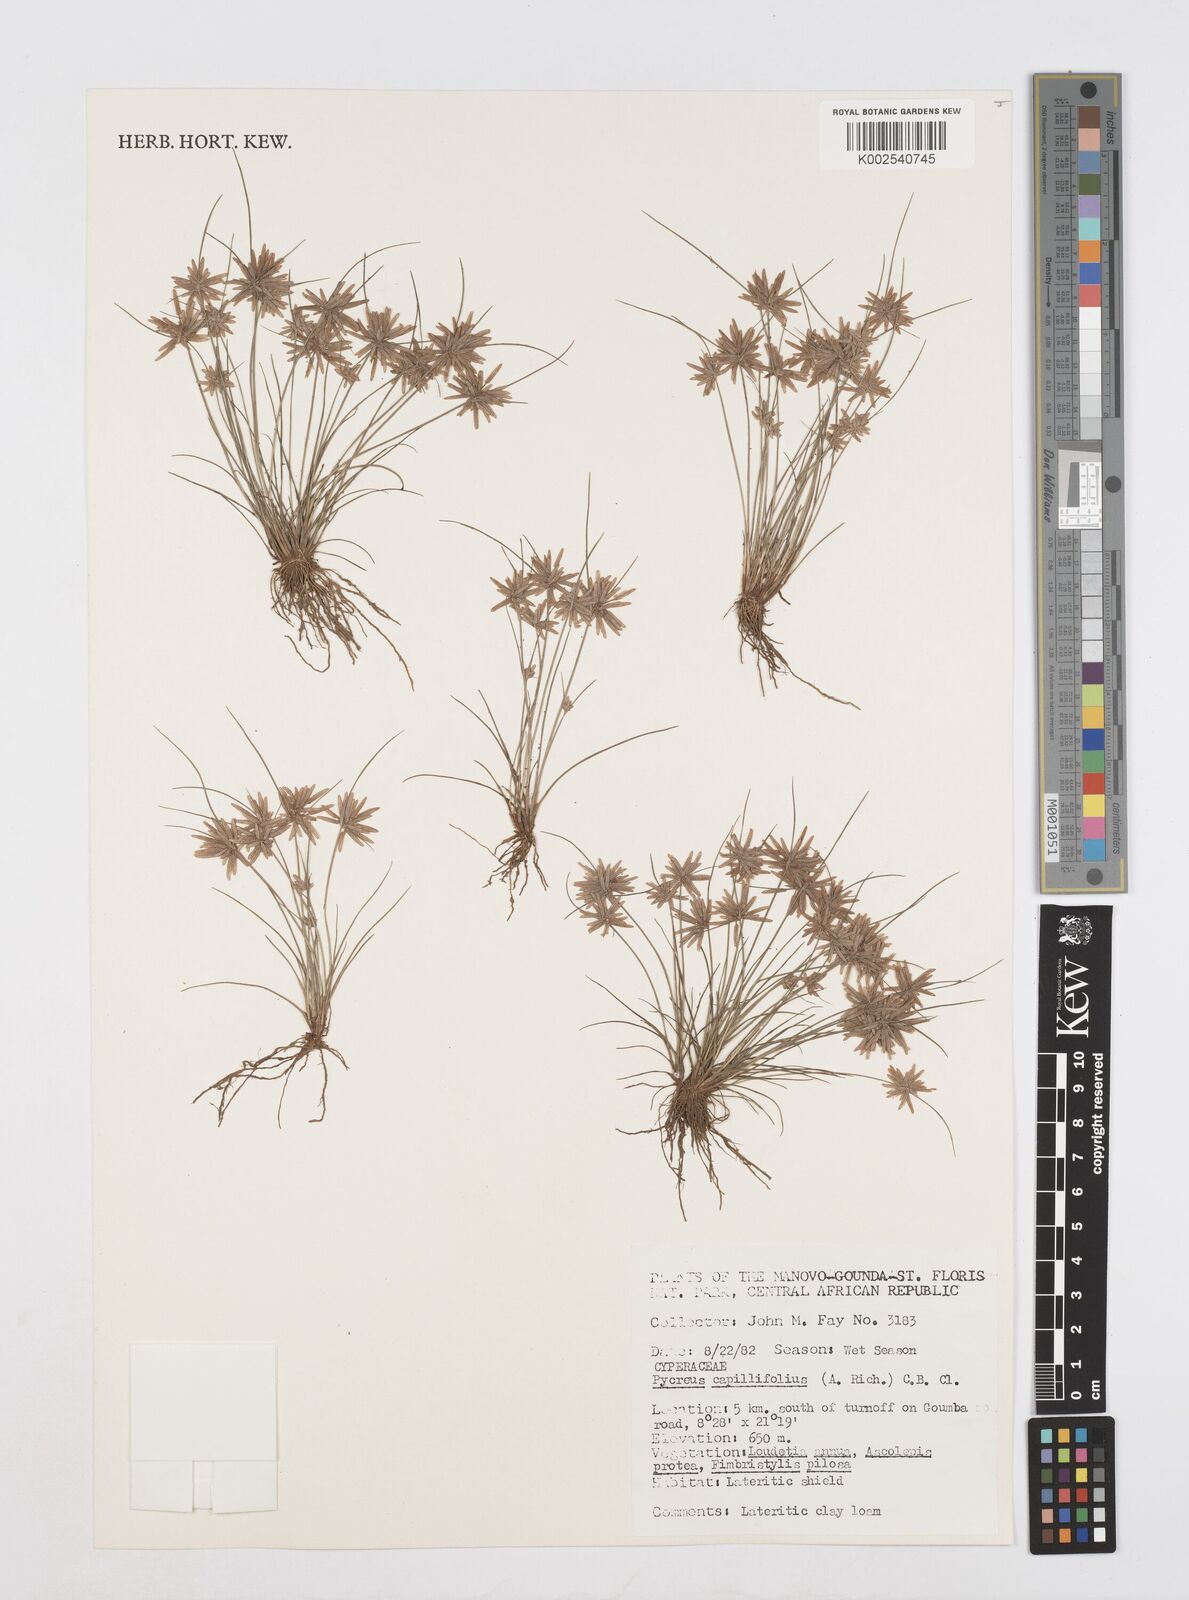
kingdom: Plantae
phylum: Tracheophyta
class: Liliopsida
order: Poales
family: Cyperaceae
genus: Cyperus
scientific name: Cyperus capillifolius
